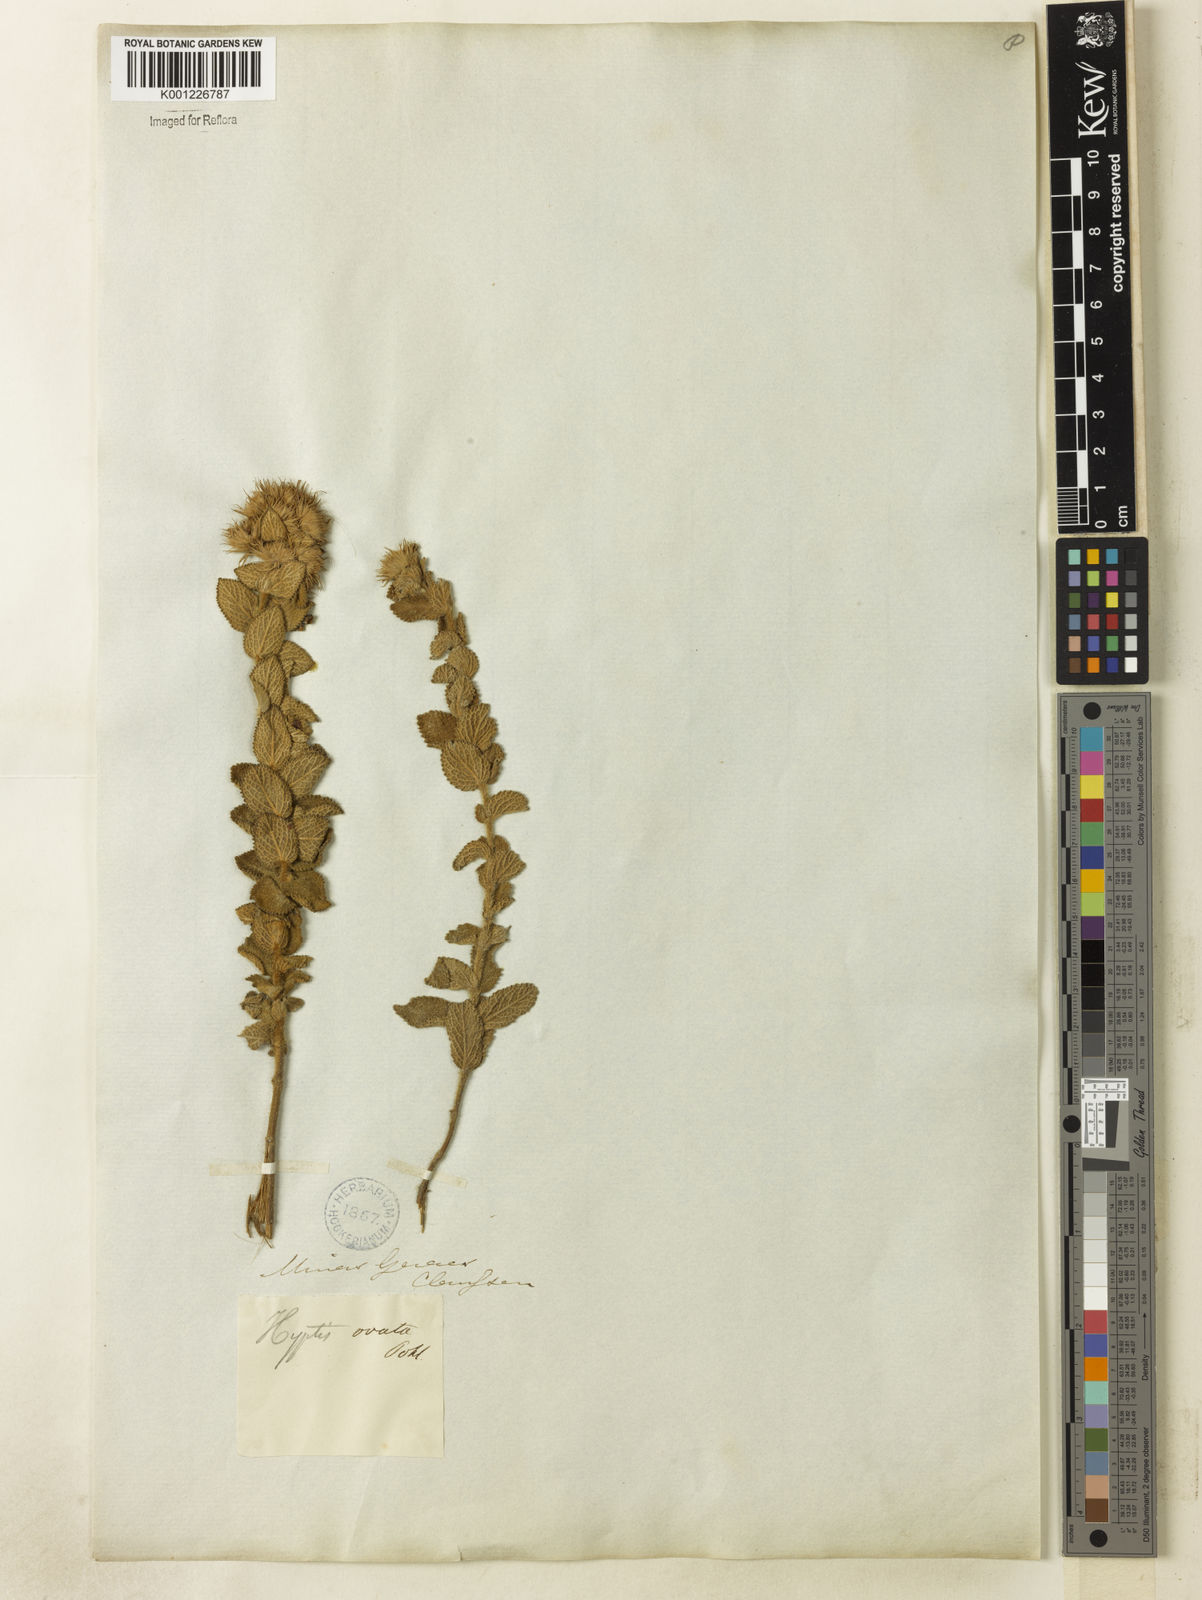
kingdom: Plantae
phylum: Tracheophyta
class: Magnoliopsida
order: Lamiales
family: Lamiaceae
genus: Hyptis
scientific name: Hyptis crenata
